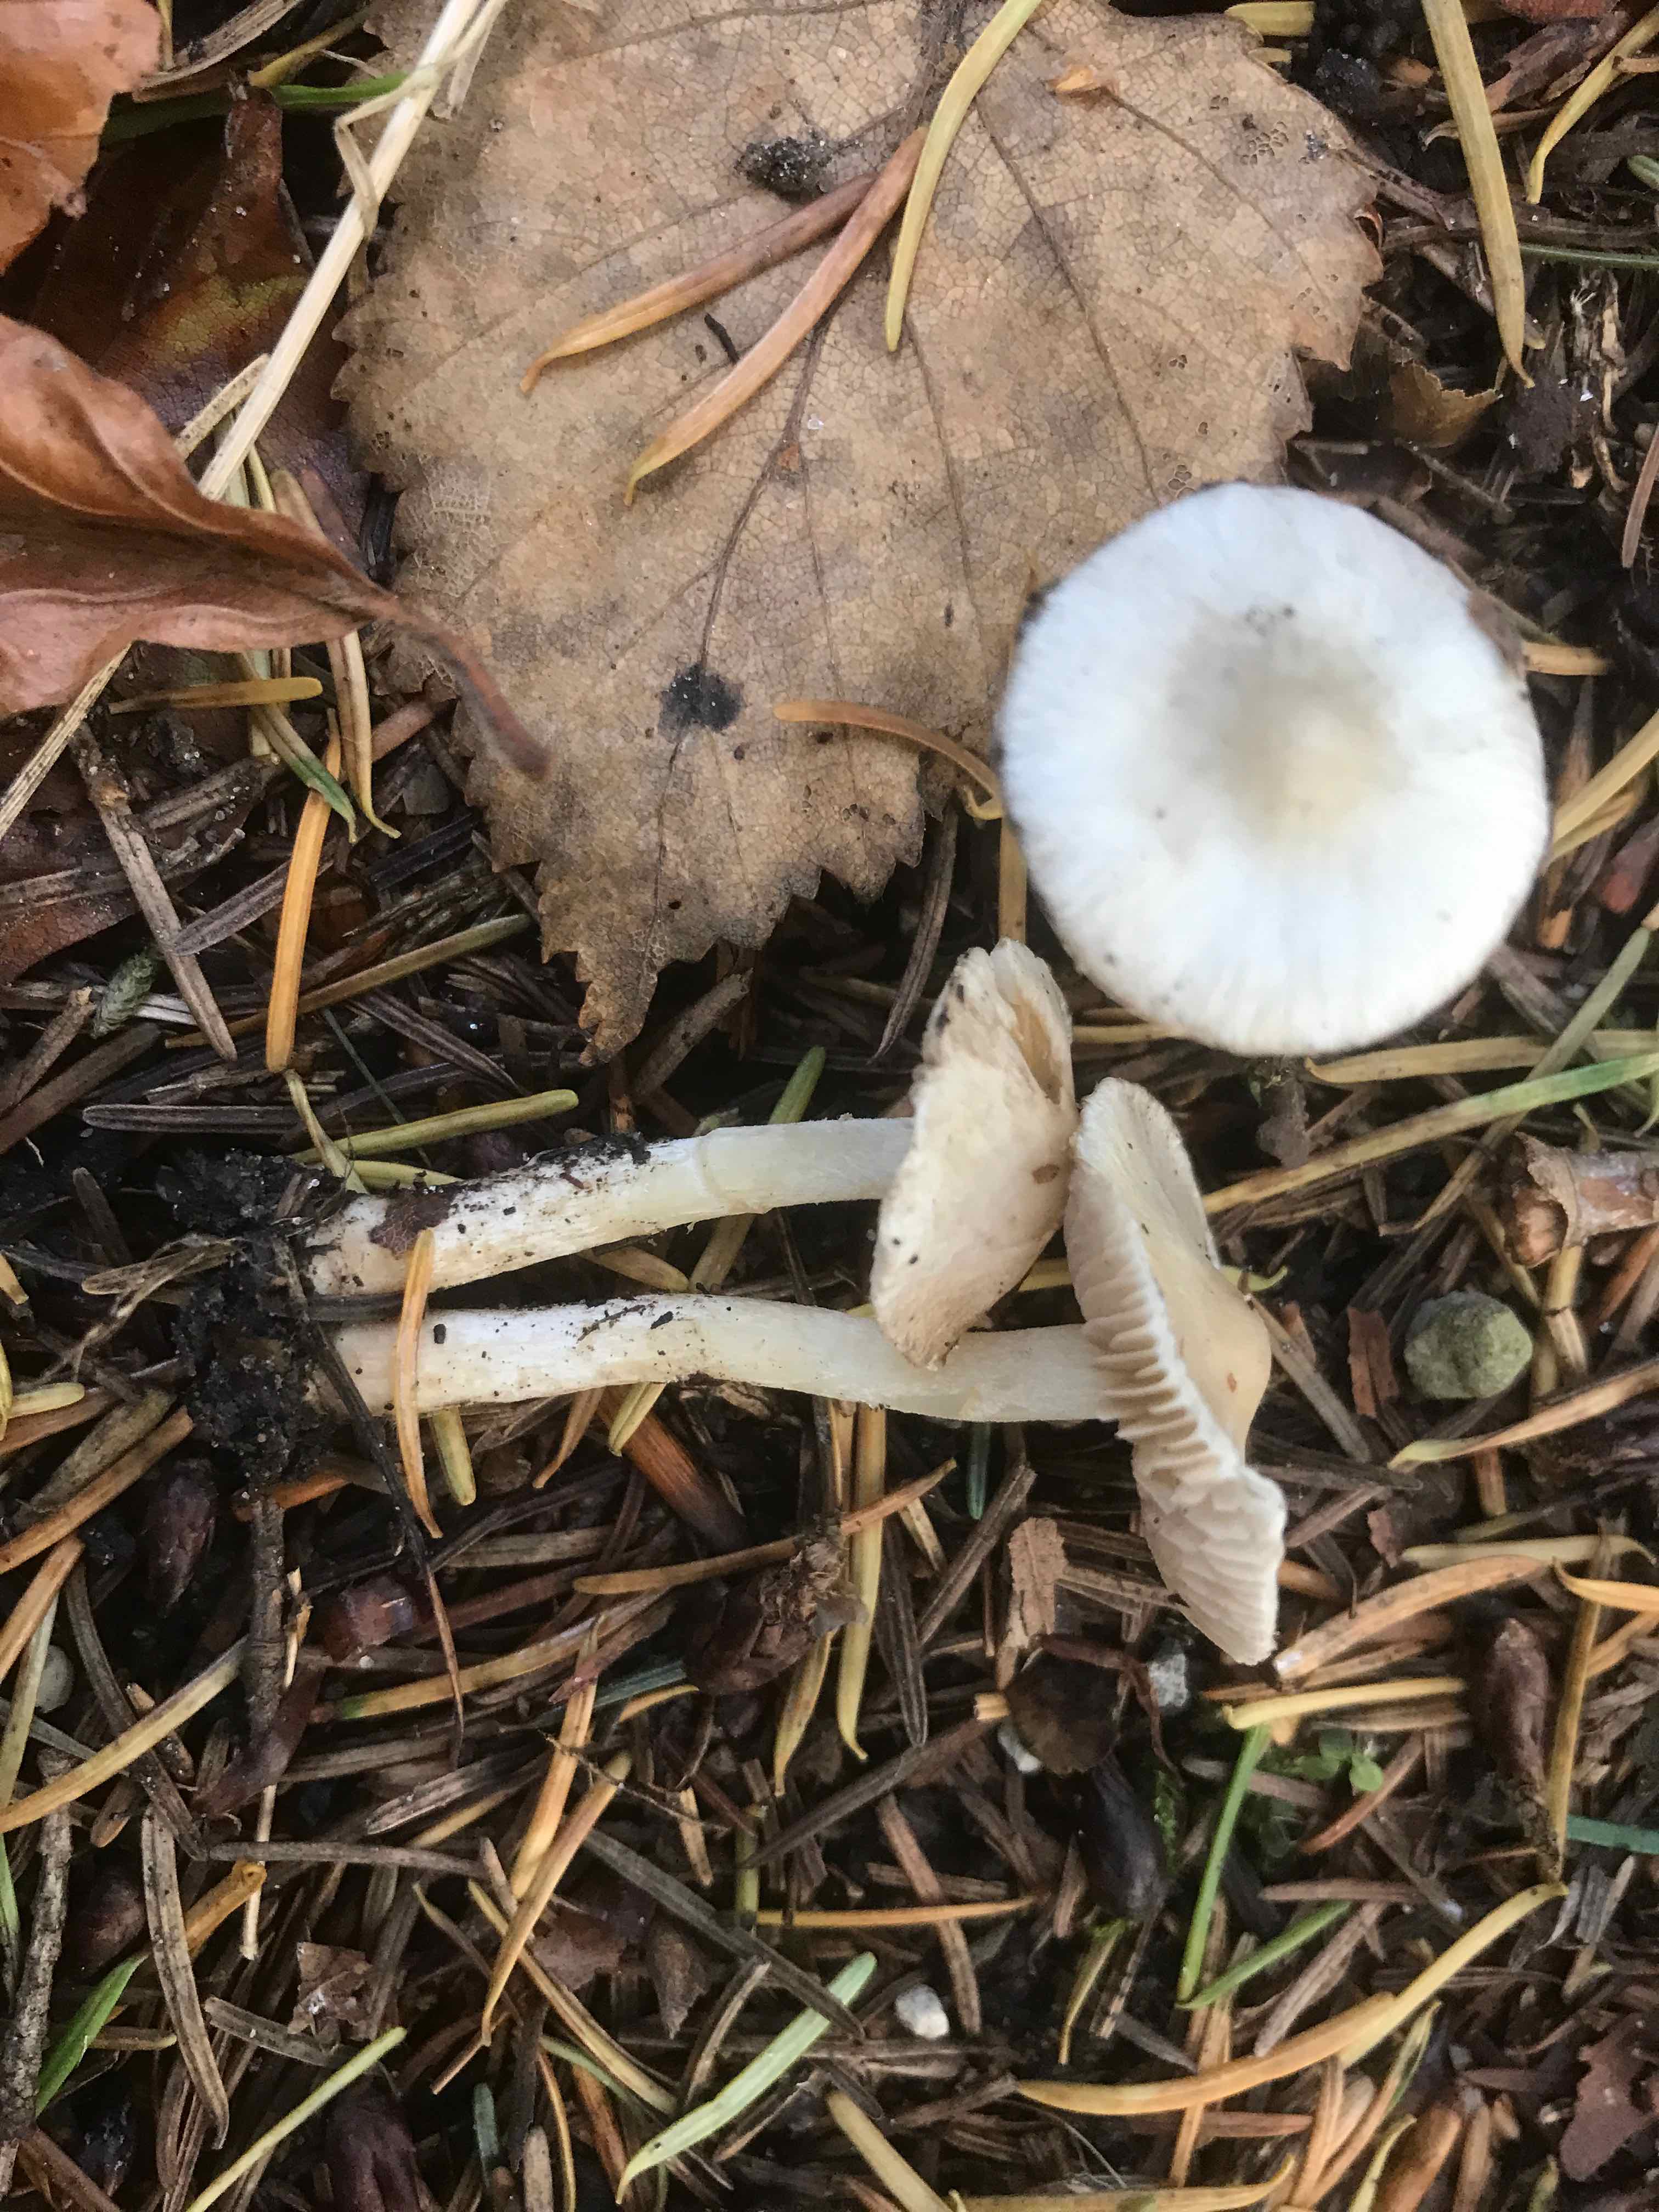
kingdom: Fungi
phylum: Basidiomycota
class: Agaricomycetes
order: Agaricales
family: Inocybaceae
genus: Inocybe
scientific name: Inocybe
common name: almindelig trævlhat
